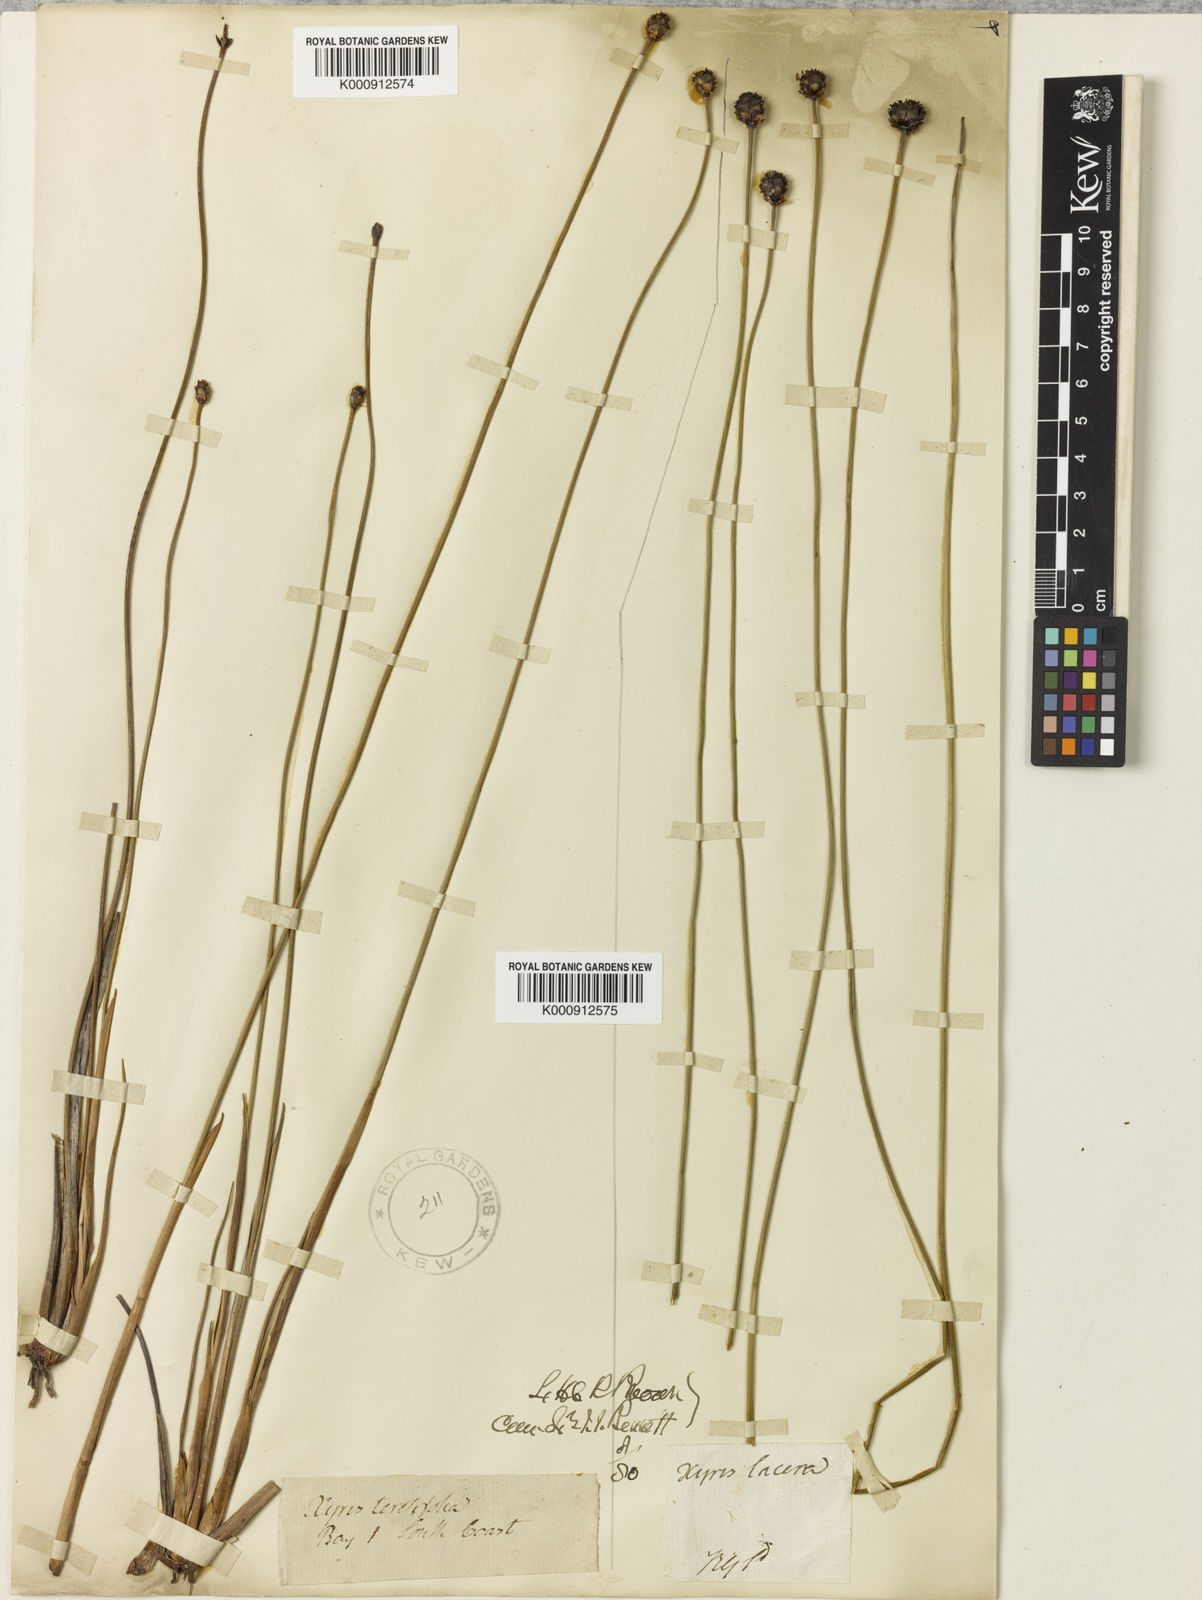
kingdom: Plantae
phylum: Tracheophyta
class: Liliopsida
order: Poales
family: Xyridaceae
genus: Xyris
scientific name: Xyris
